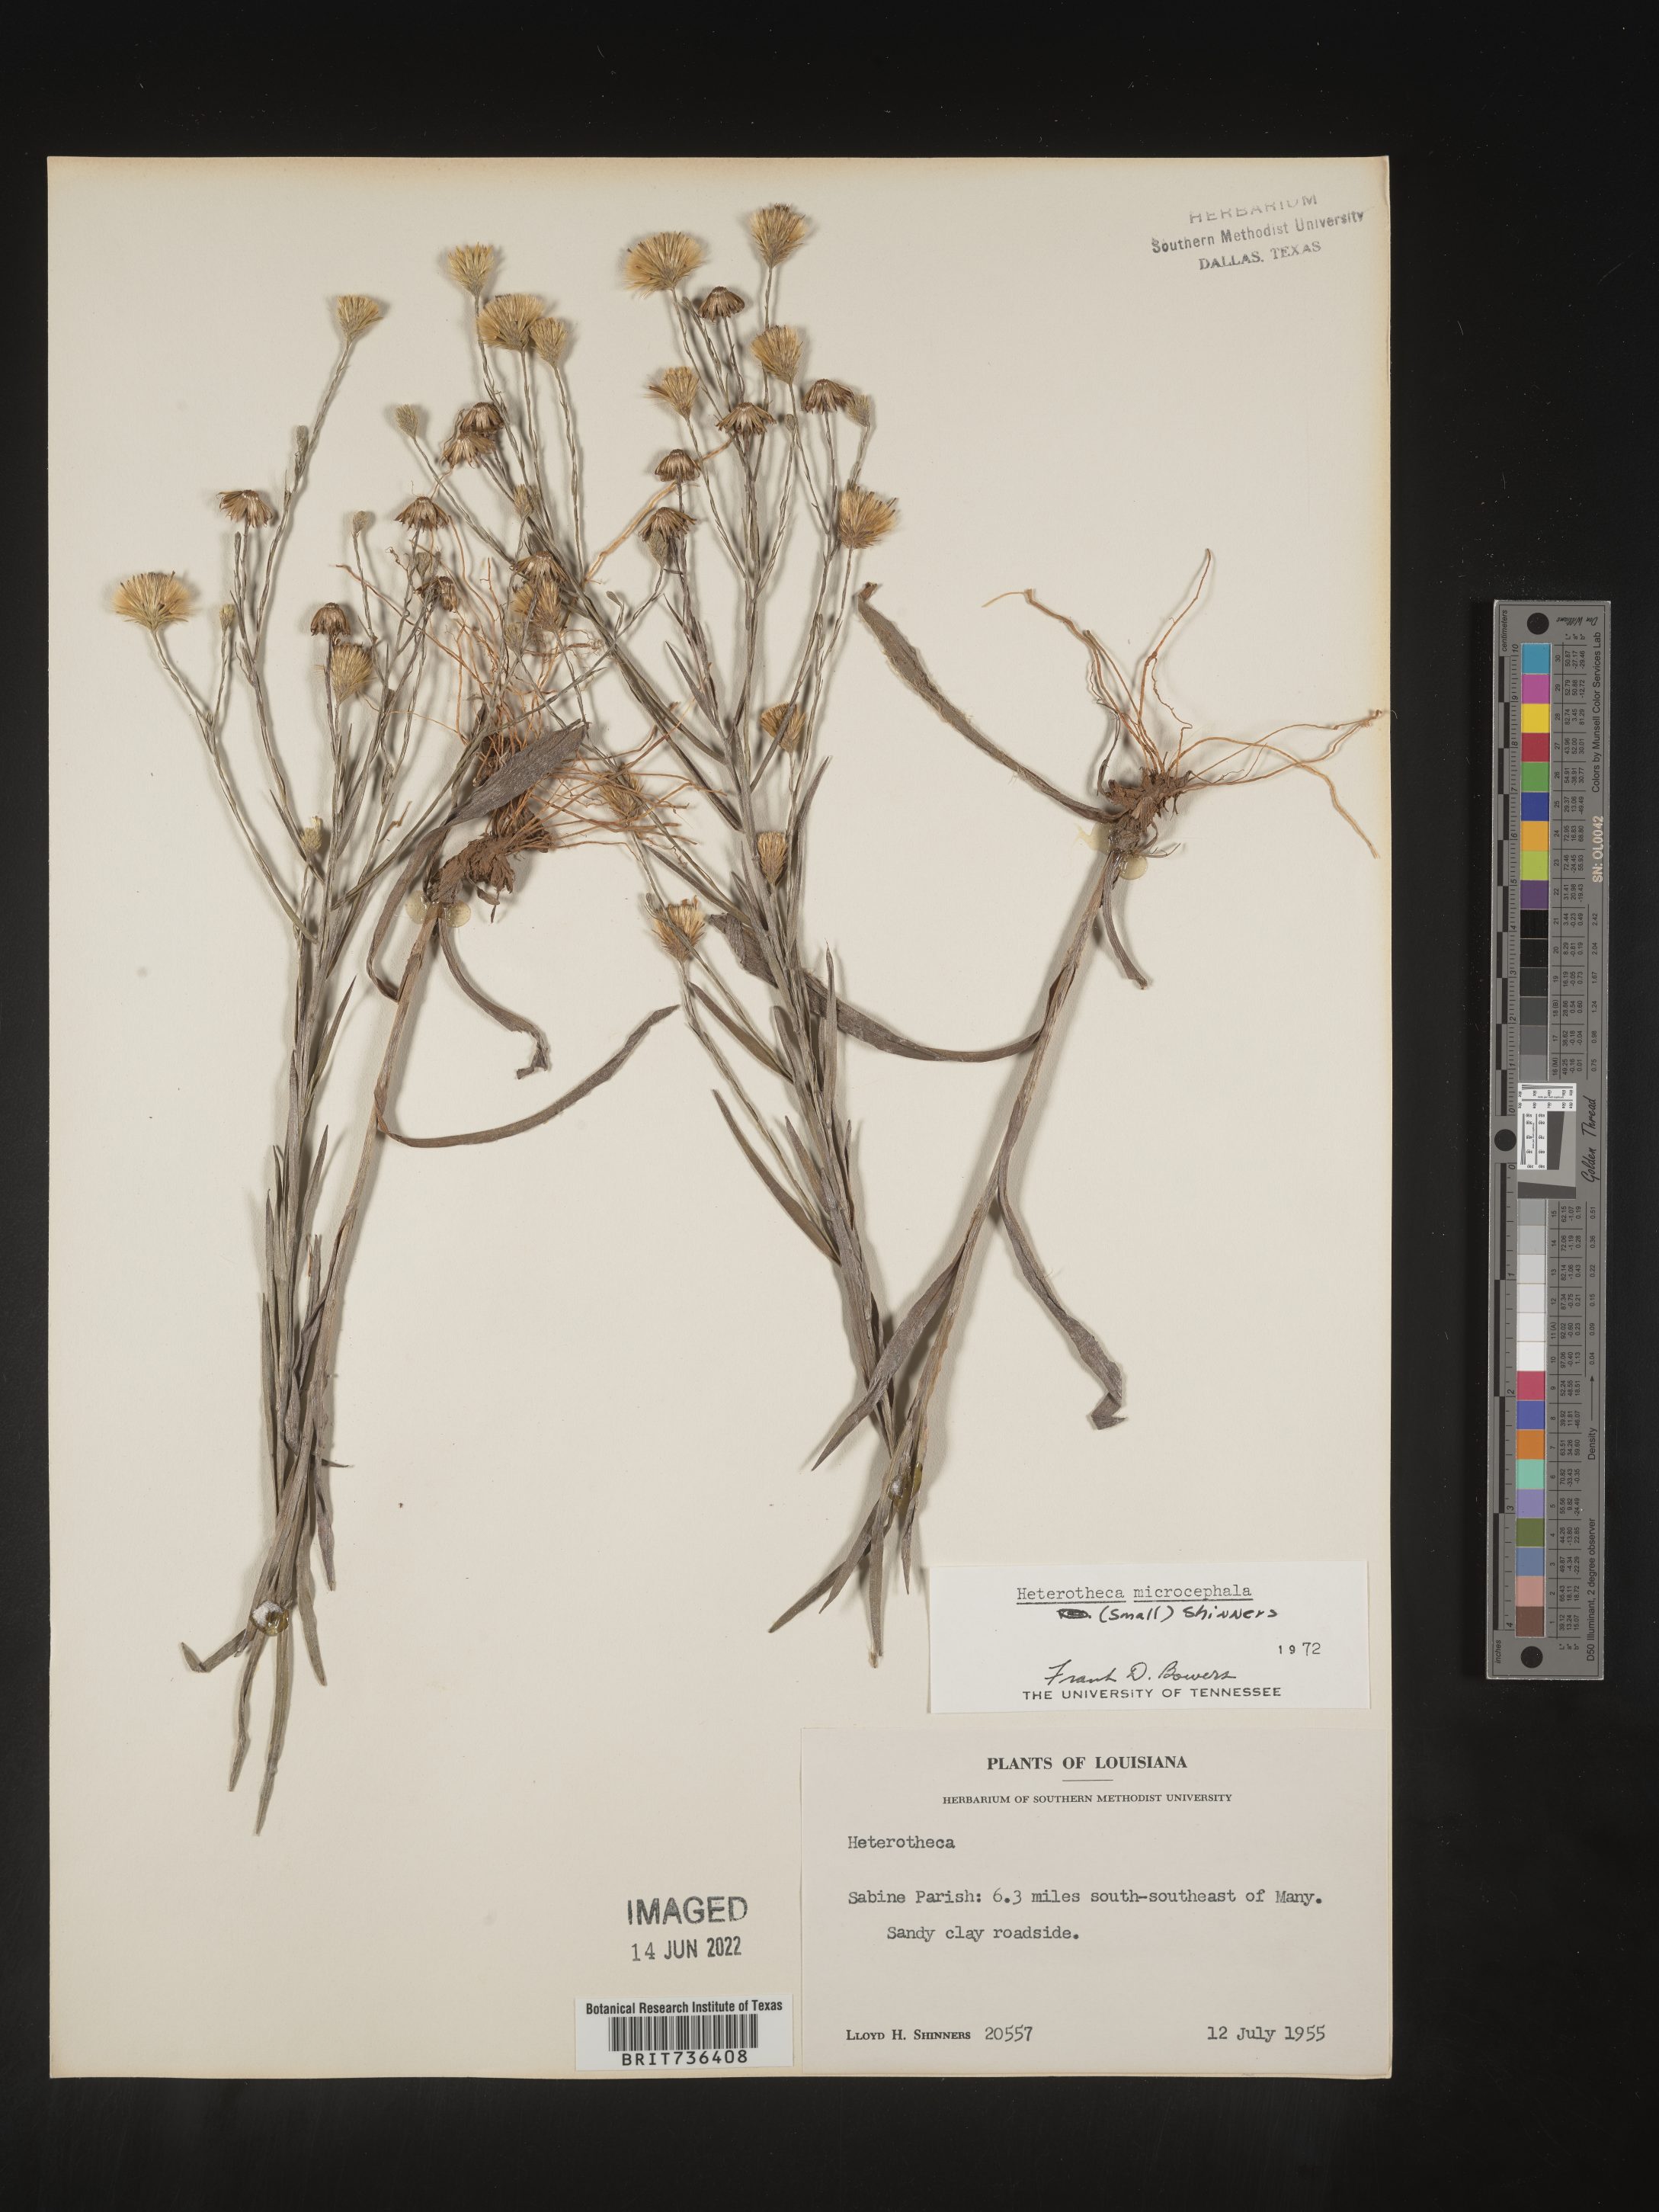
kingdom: Plantae
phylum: Tracheophyta
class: Magnoliopsida
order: Asterales
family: Asteraceae
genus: Pityopsis
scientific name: Pityopsis tenuifolia
